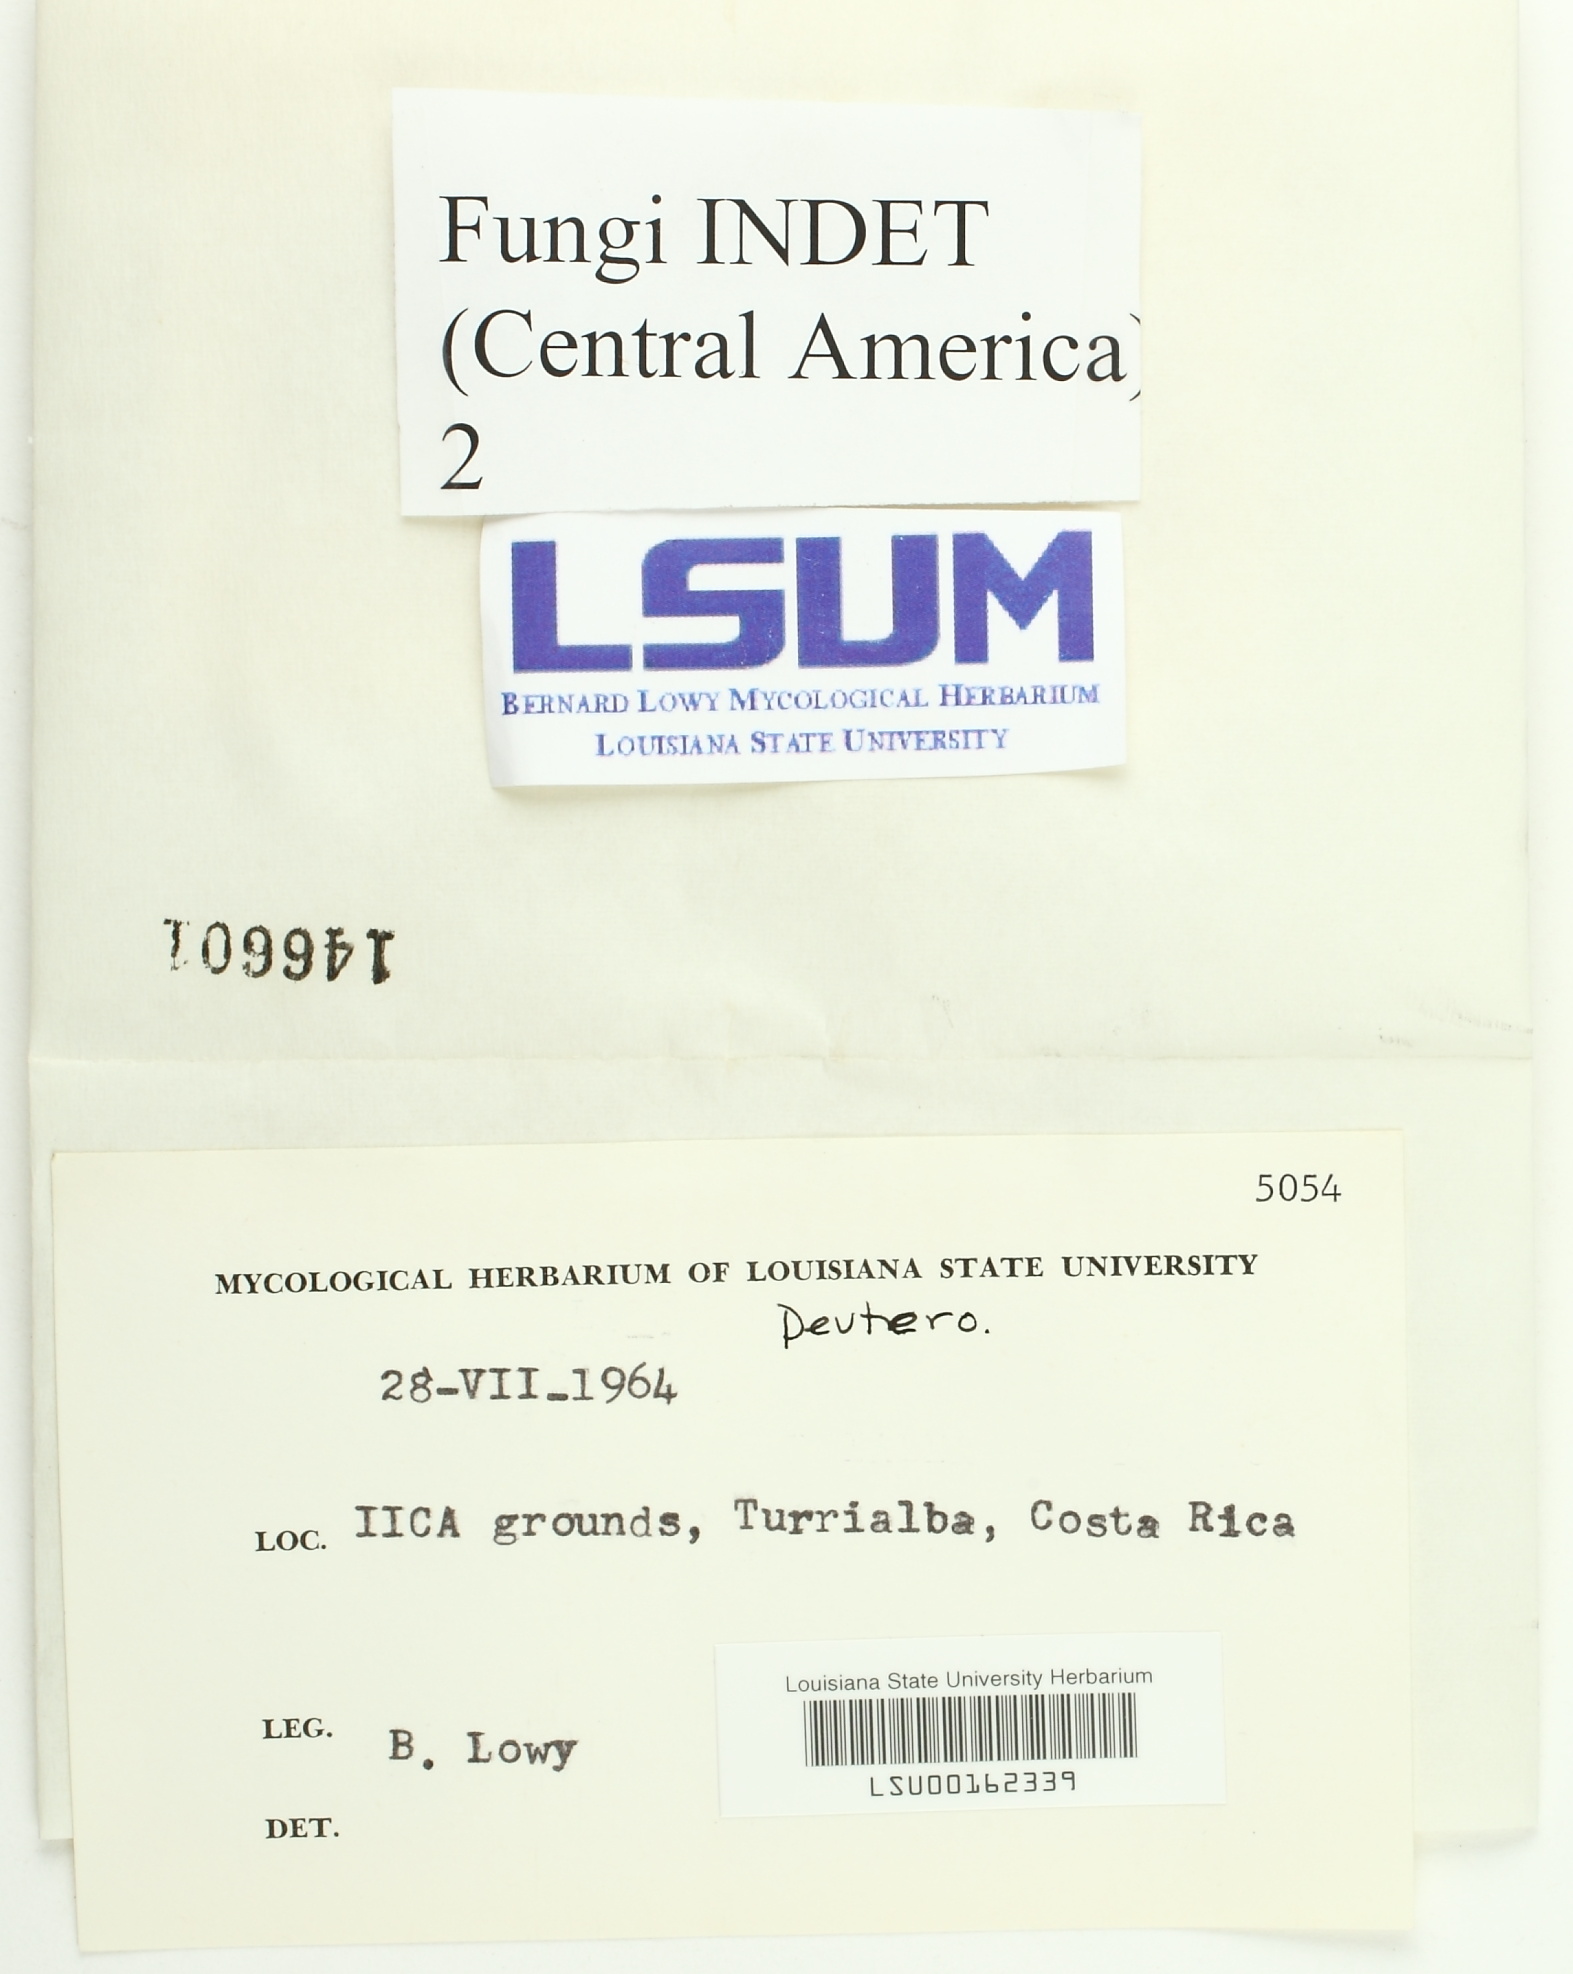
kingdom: Fungi
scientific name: Fungi
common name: Fungi
